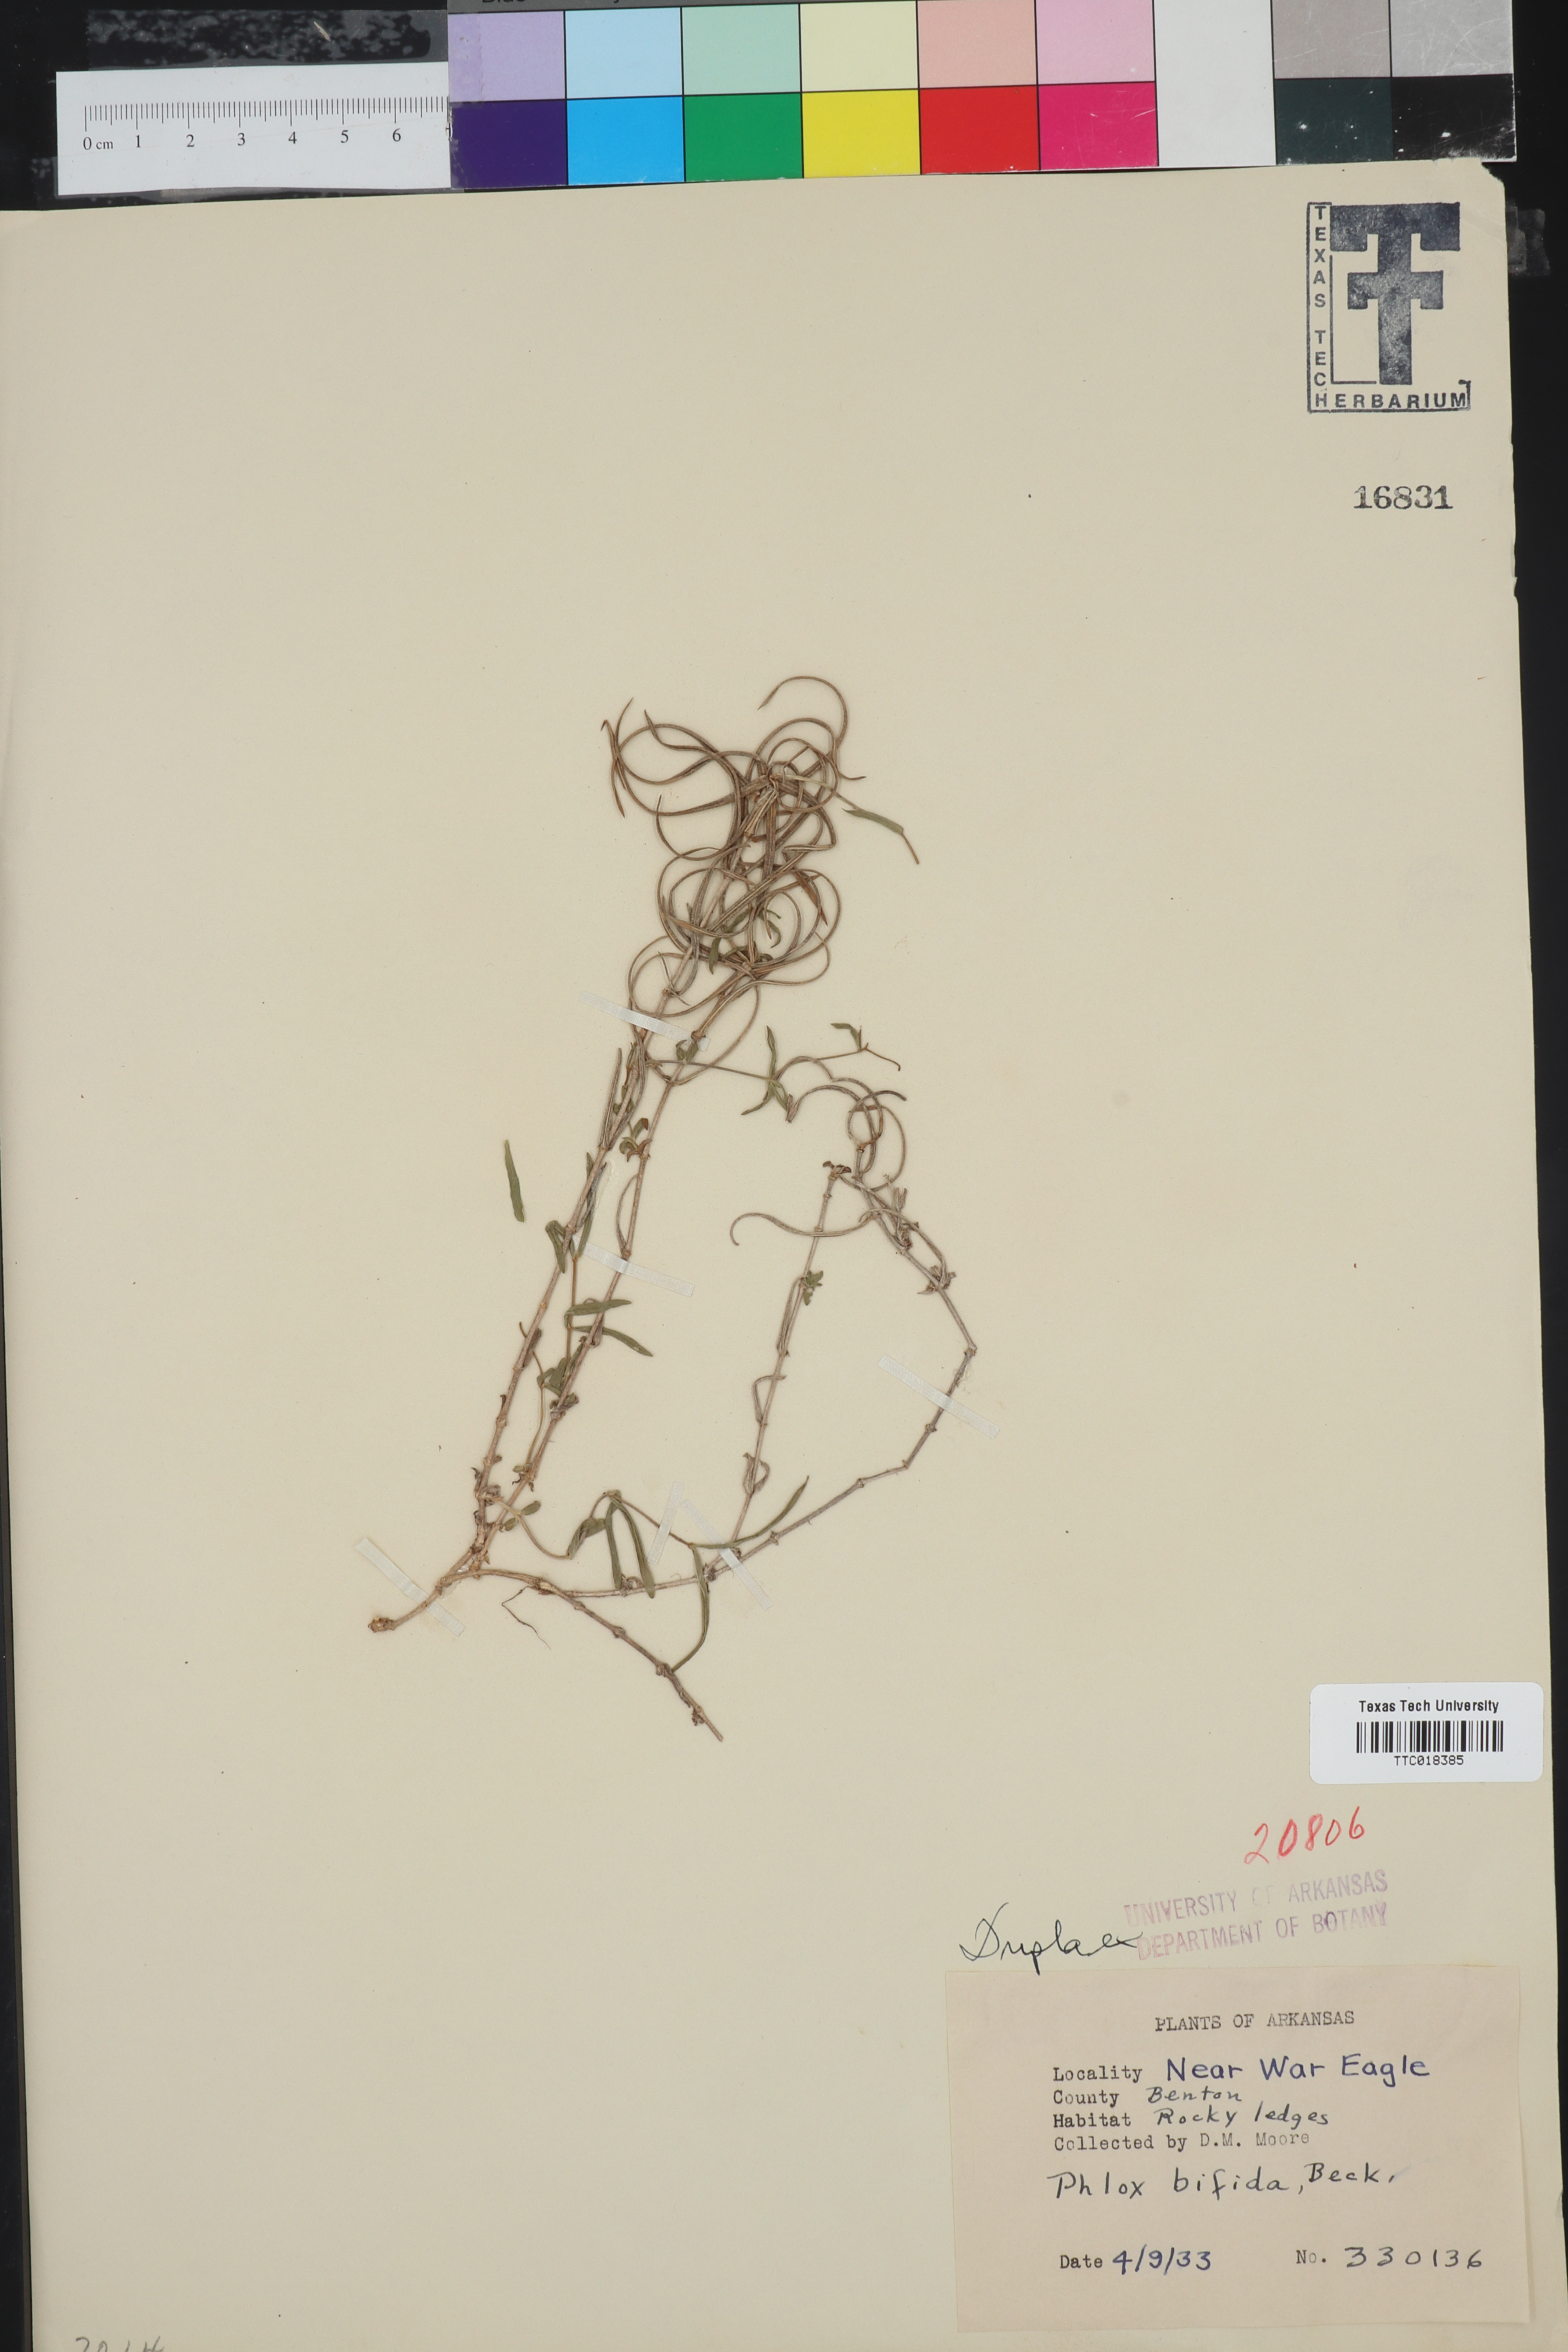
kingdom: Plantae
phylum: Tracheophyta
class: Magnoliopsida
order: Ericales
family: Polemoniaceae
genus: Phlox
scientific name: Phlox bifida
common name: Sand phlox
